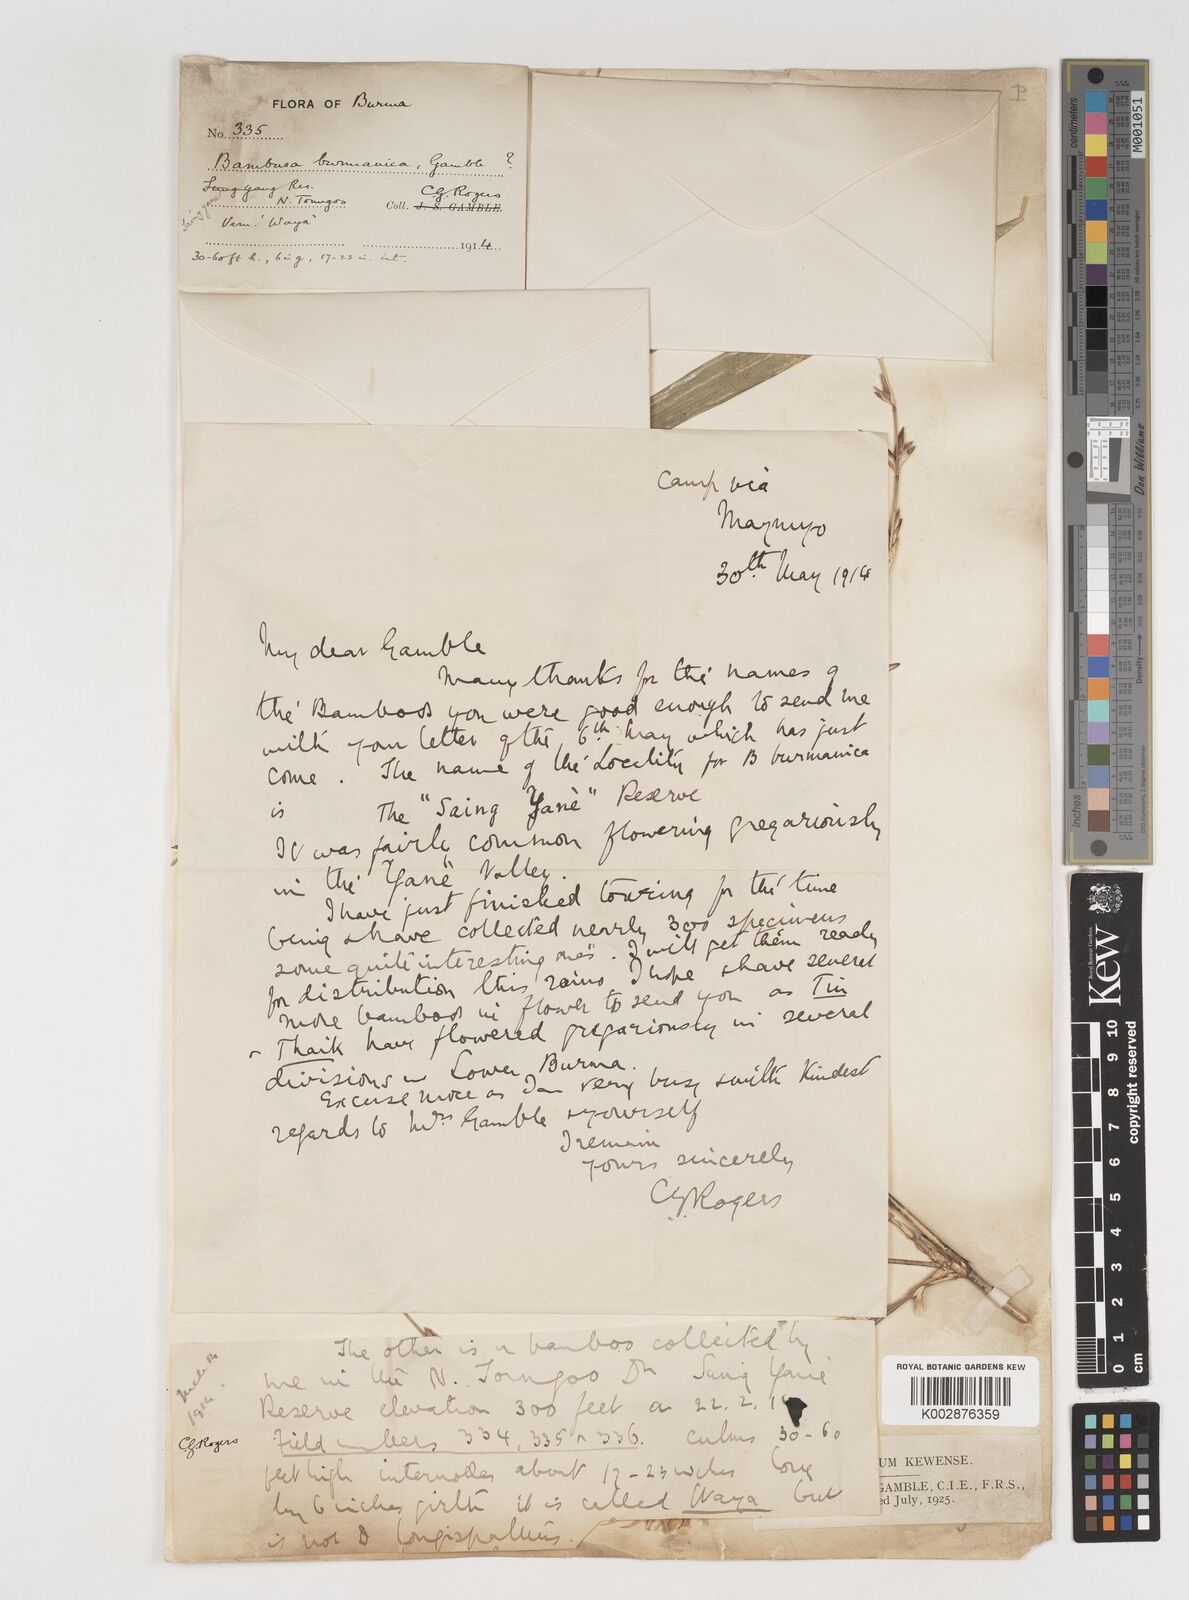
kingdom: Plantae
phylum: Tracheophyta
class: Liliopsida
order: Poales
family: Poaceae
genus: Bambusa
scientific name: Bambusa burmanica
